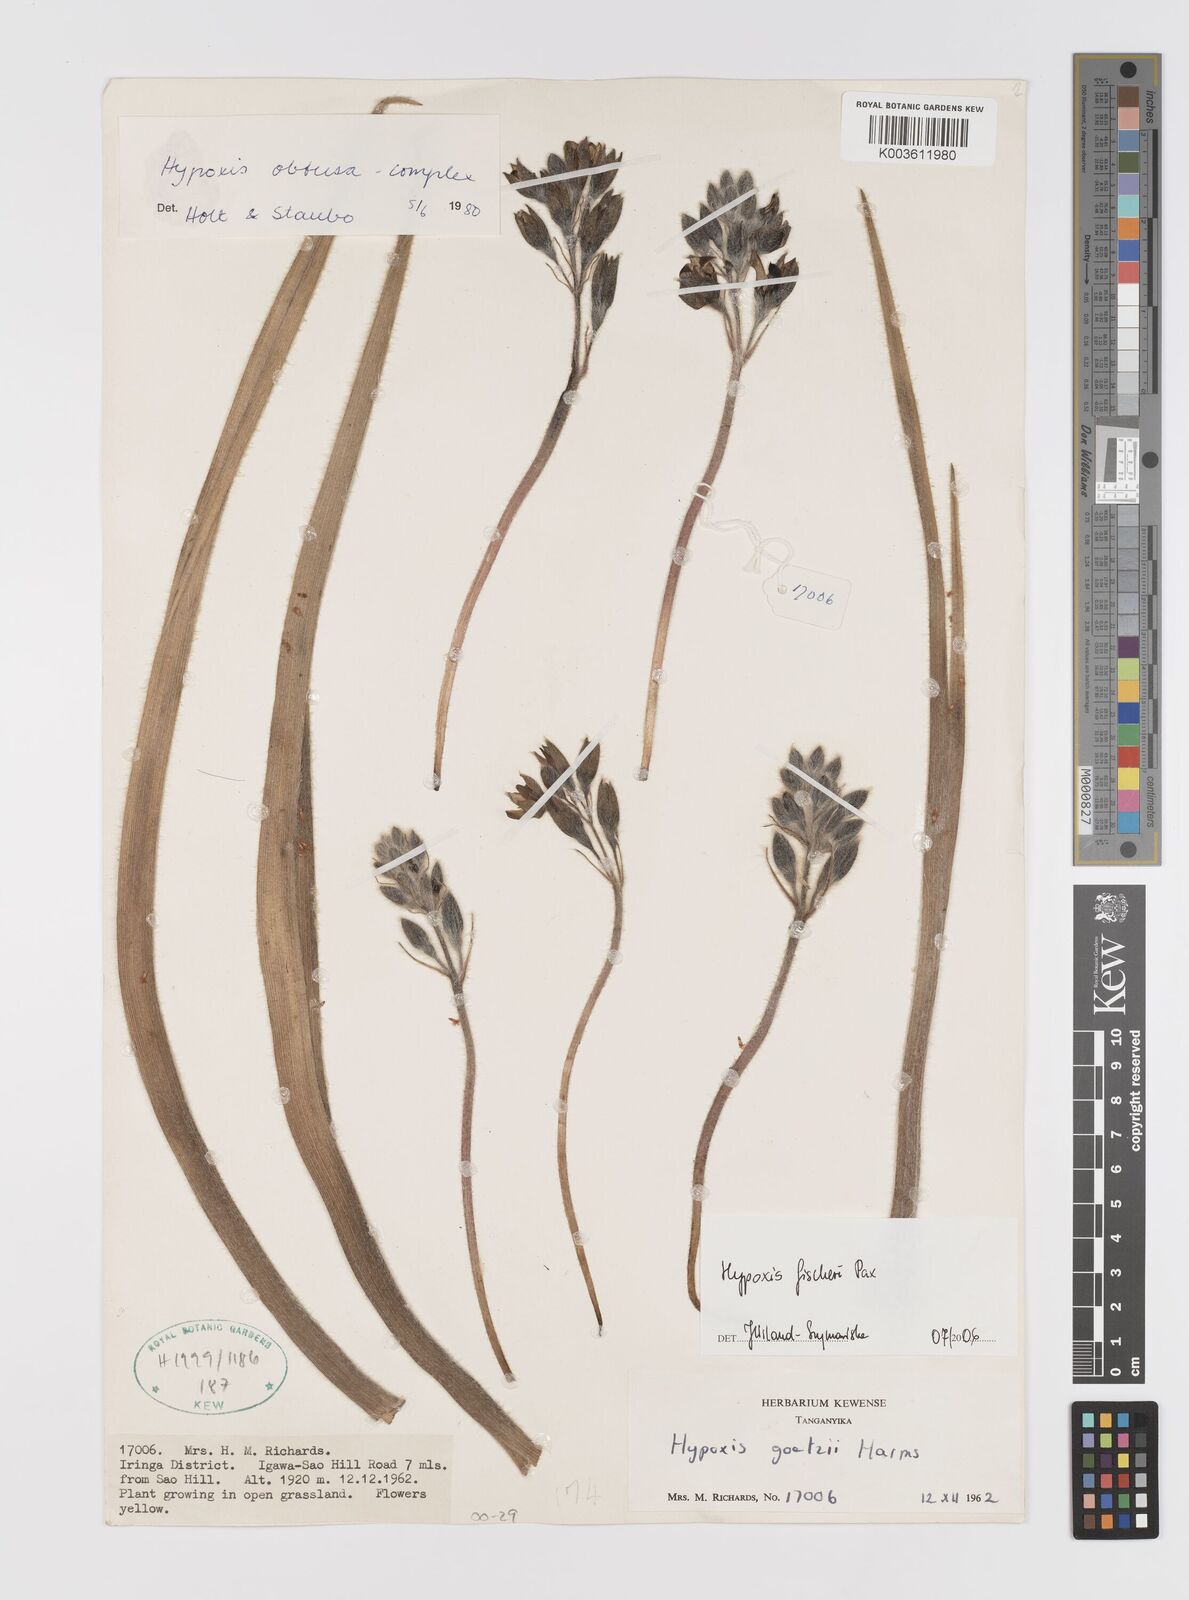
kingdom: Plantae
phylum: Tracheophyta
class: Liliopsida
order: Asparagales
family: Hypoxidaceae
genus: Hypoxis
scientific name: Hypoxis fischeri
